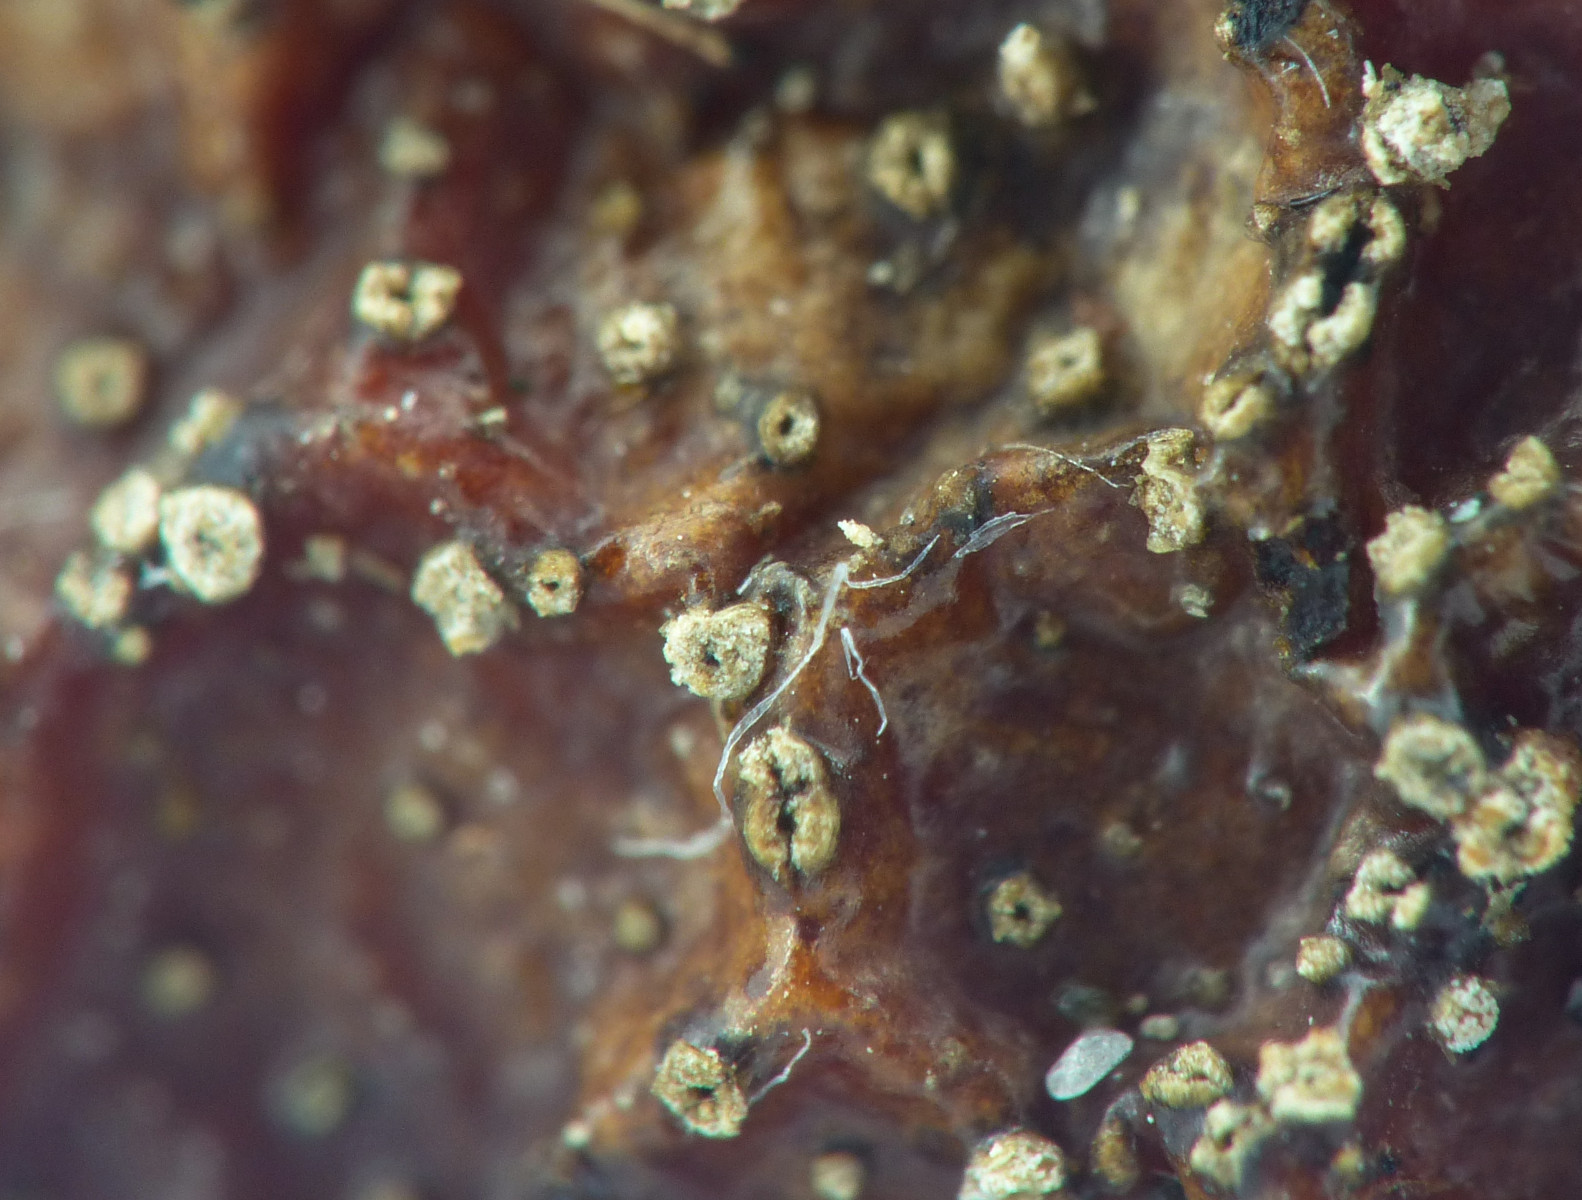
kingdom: Fungi
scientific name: Fungi
